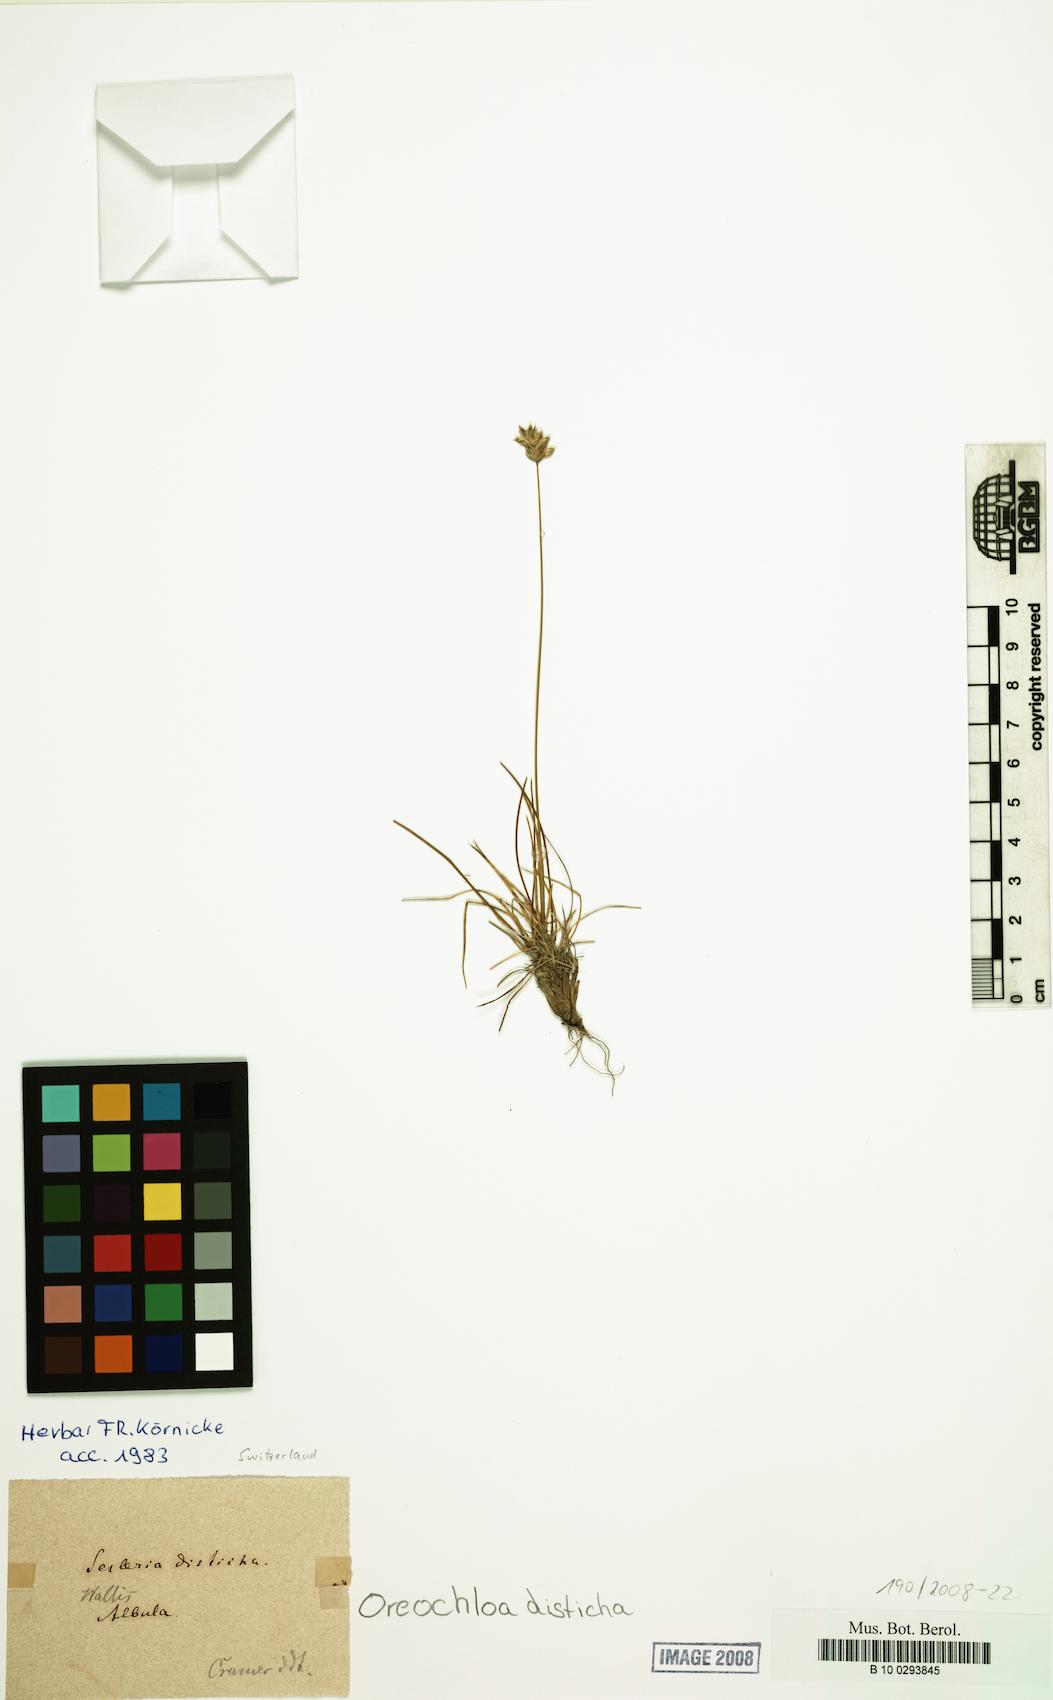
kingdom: Plantae
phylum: Tracheophyta
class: Liliopsida
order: Poales
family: Poaceae
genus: Oreochloa
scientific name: Oreochloa disticha
